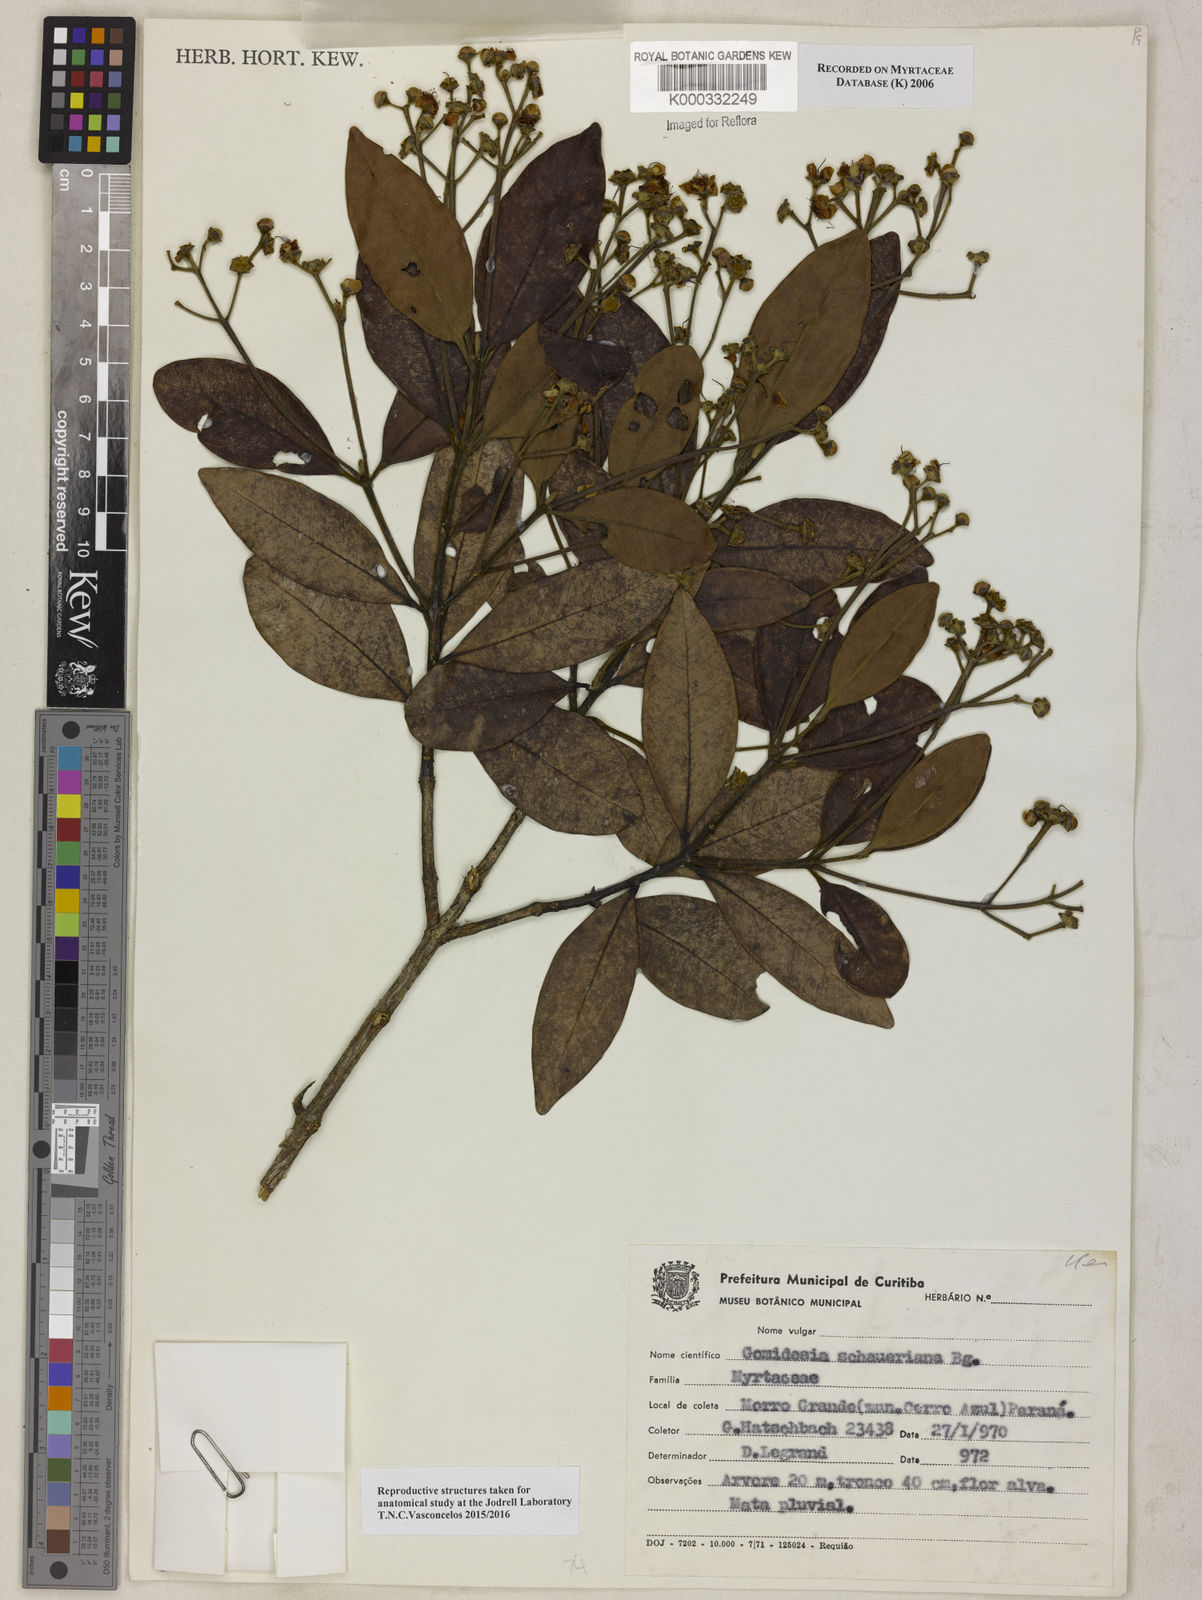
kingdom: Plantae
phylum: Tracheophyta
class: Magnoliopsida
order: Myrtales
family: Myrtaceae
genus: Myrcia
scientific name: Myrcia freyreissiana
